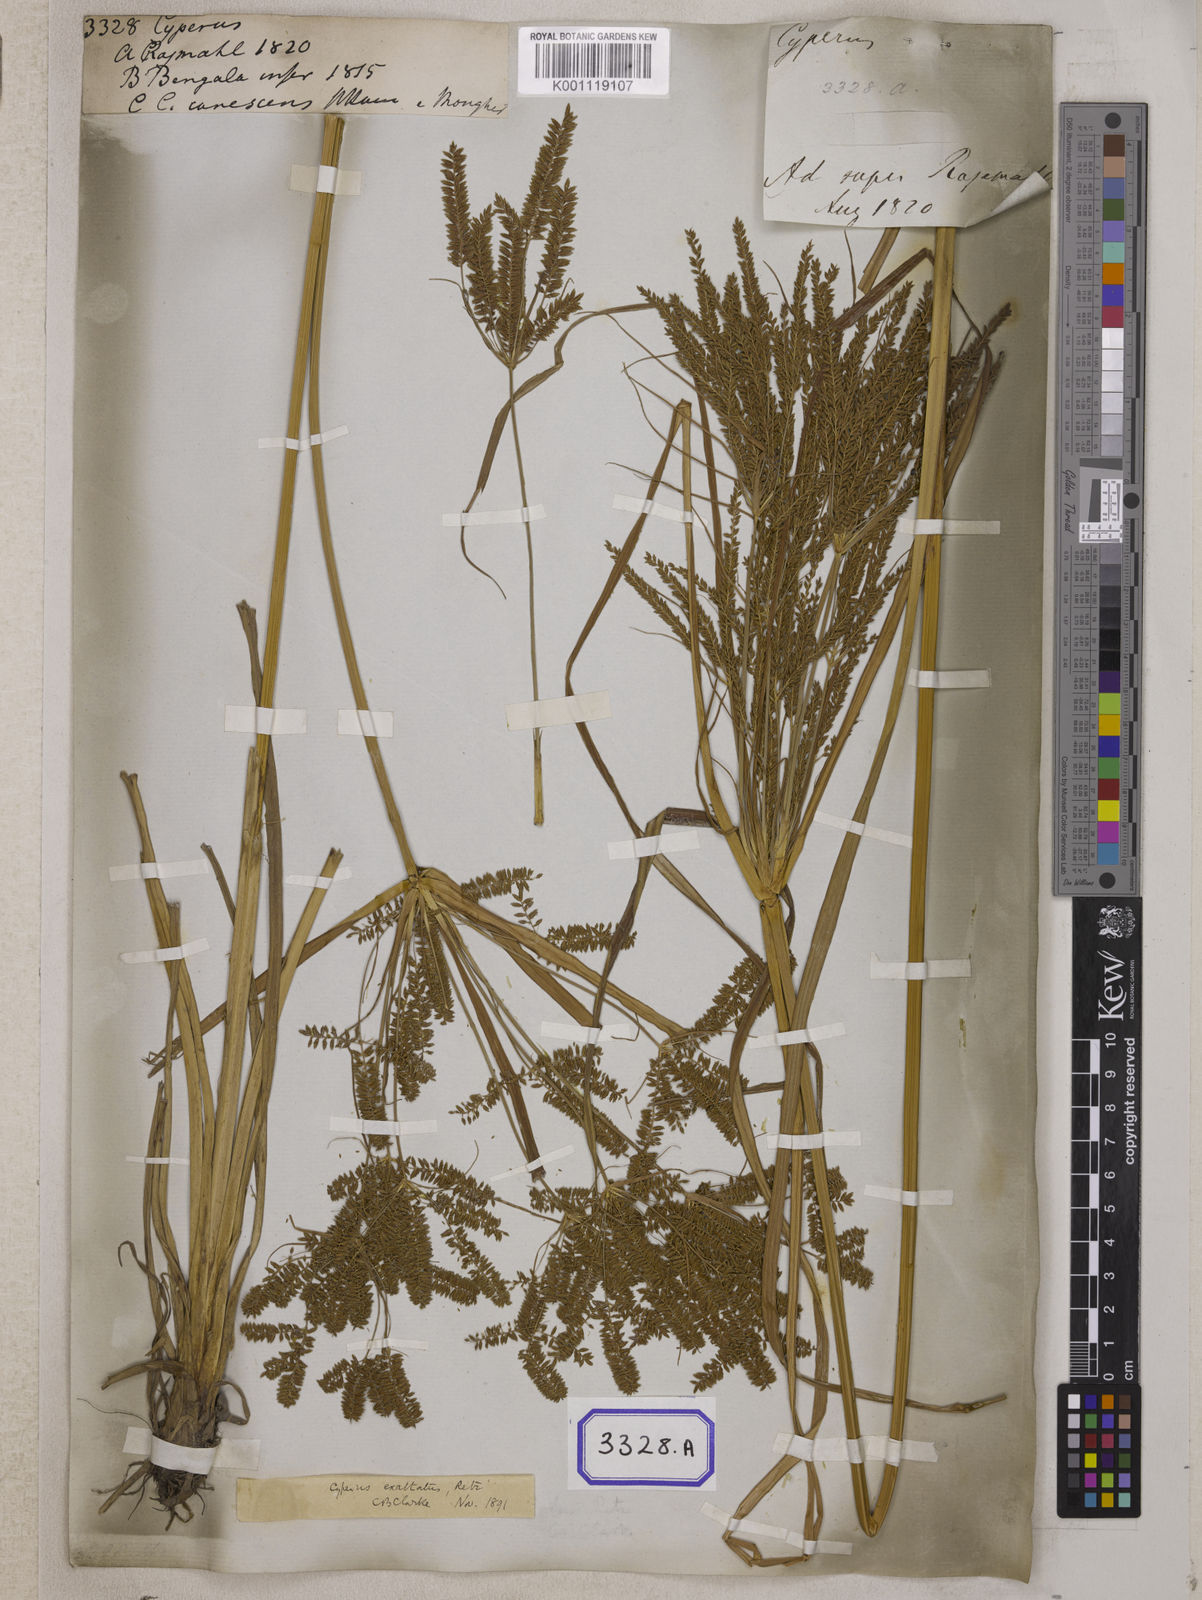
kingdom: Plantae
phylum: Tracheophyta
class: Liliopsida
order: Poales
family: Cyperaceae
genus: Cyperus
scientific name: Cyperus
